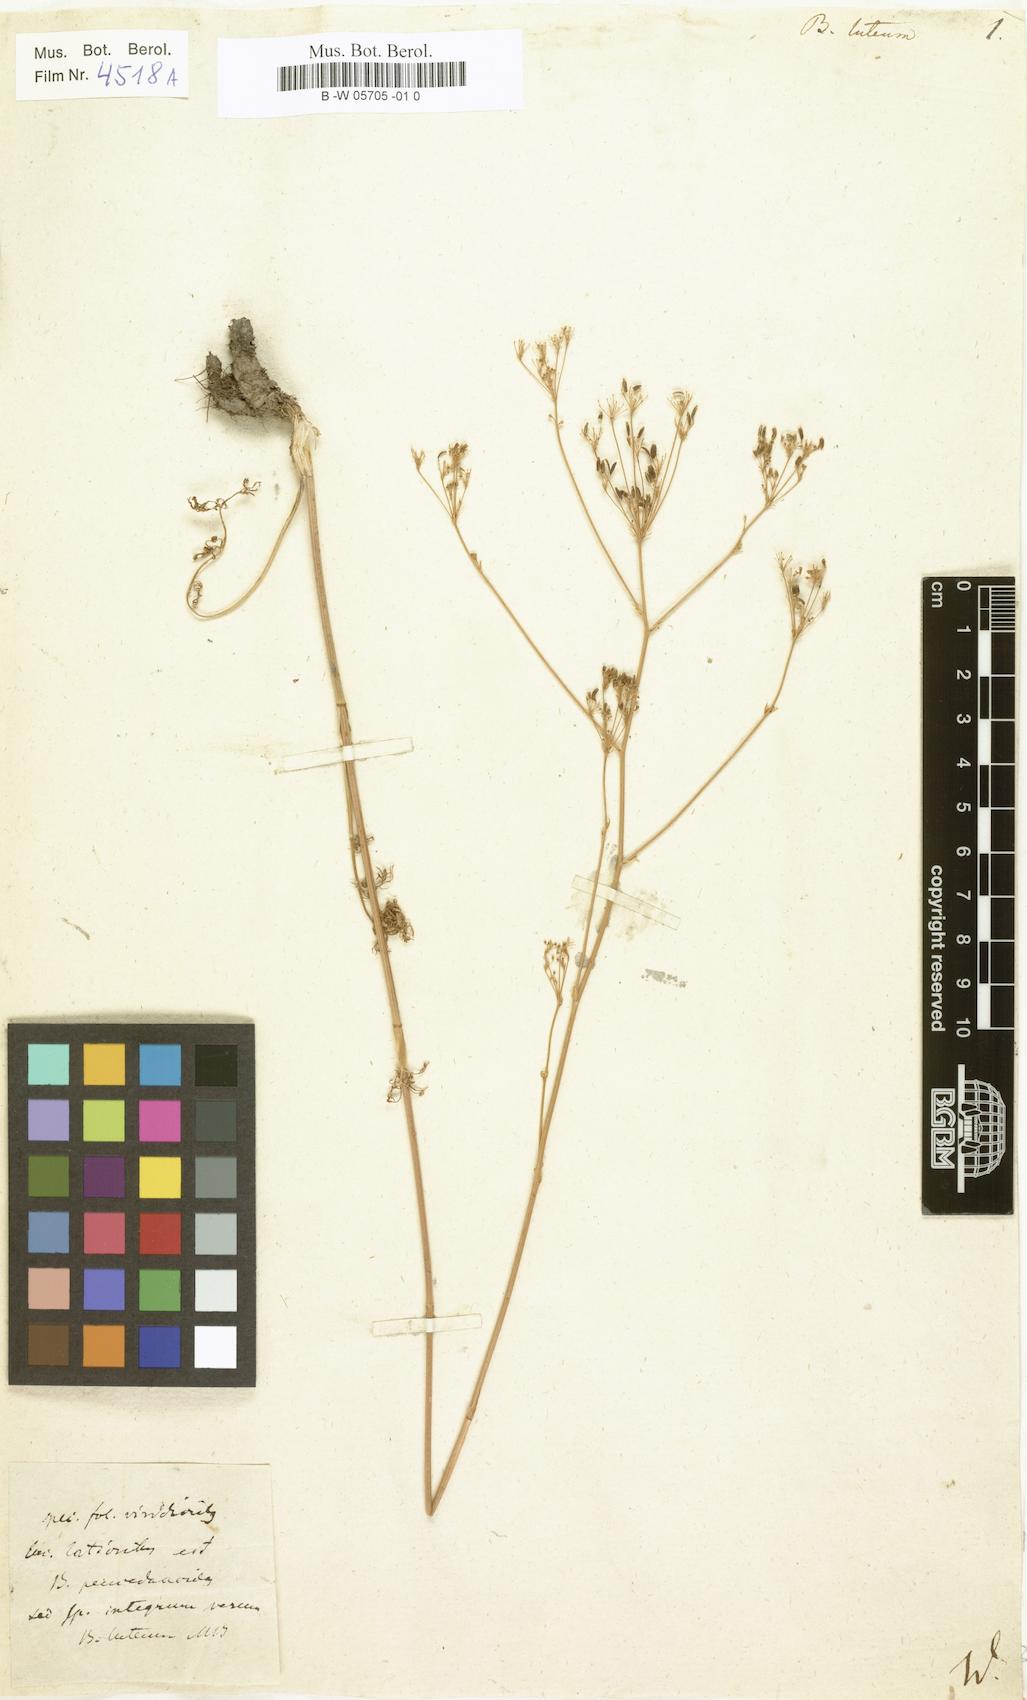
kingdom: Plantae
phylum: Tracheophyta
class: Magnoliopsida
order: Apiales
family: Apiaceae
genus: Elaeosticta
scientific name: Elaeosticta lutea
